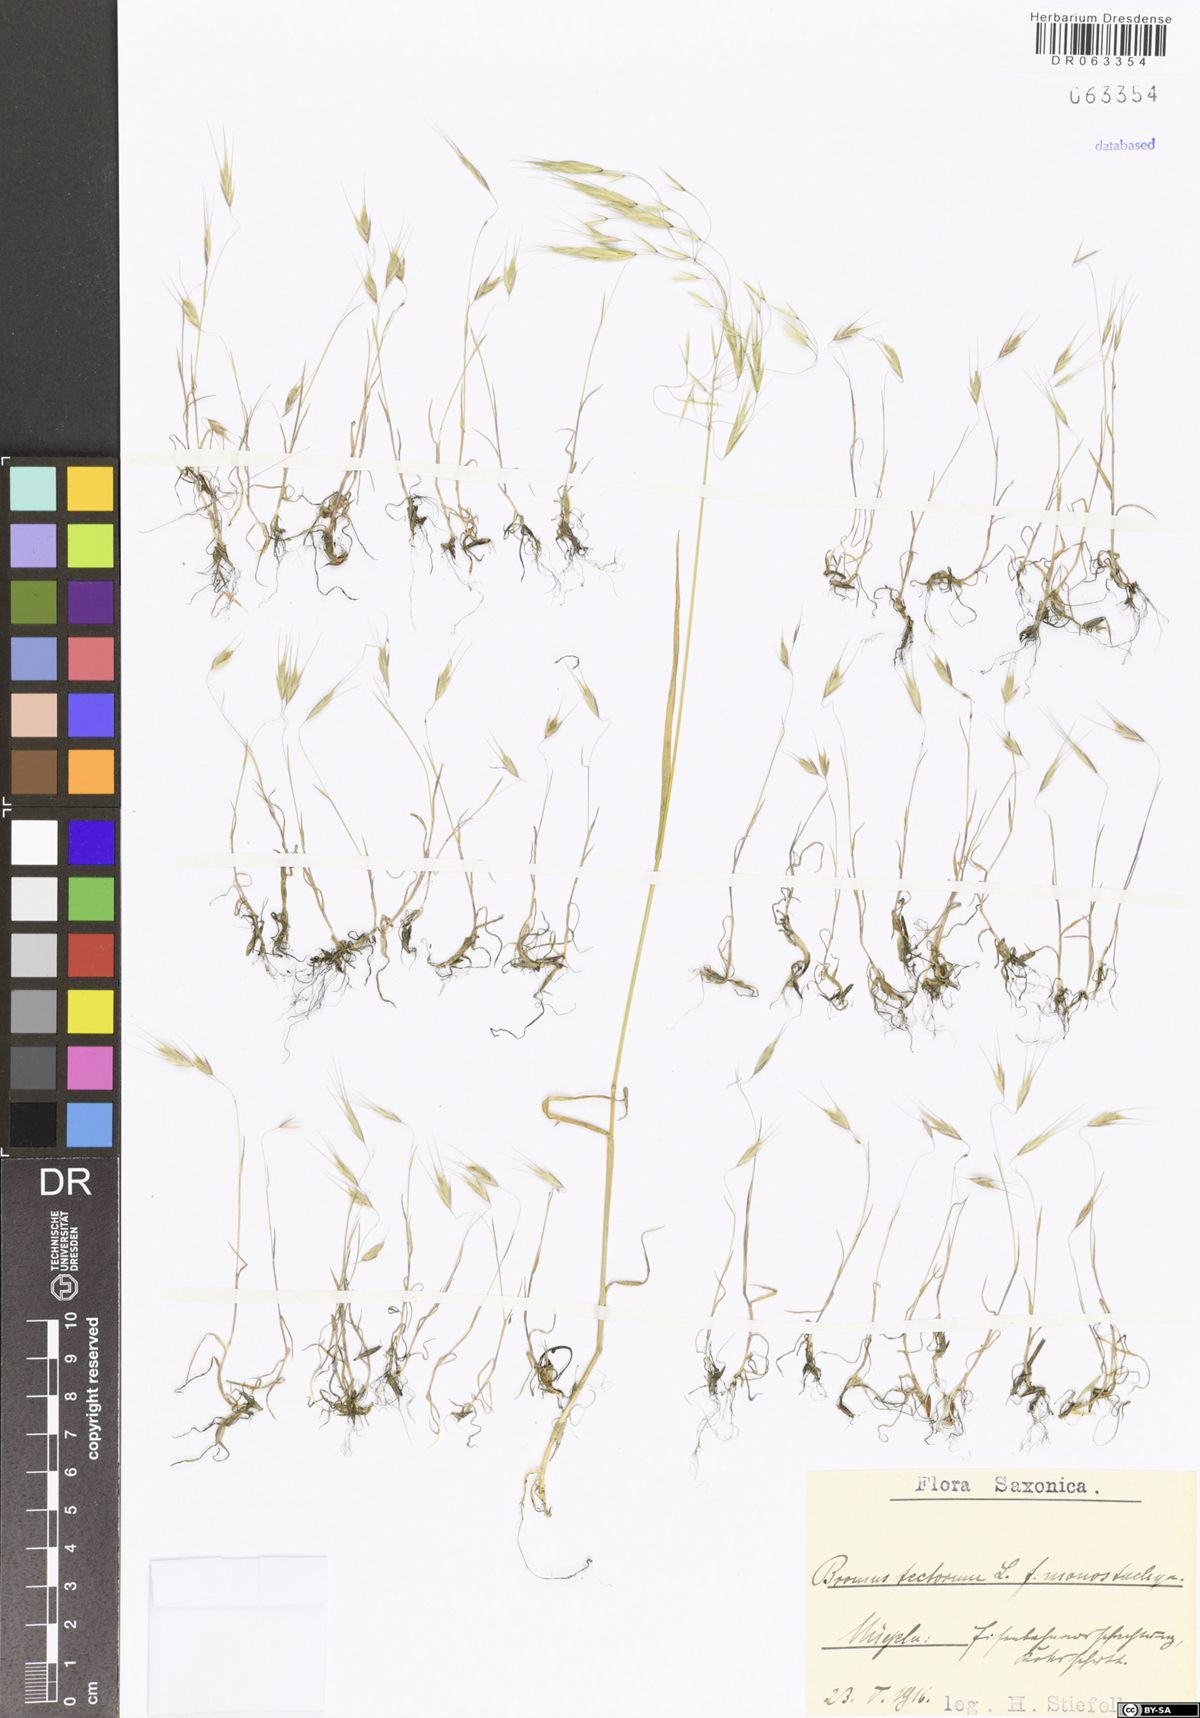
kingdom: Plantae
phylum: Tracheophyta
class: Liliopsida
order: Poales
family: Poaceae
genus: Bromus
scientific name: Bromus tectorum
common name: Cheatgrass
